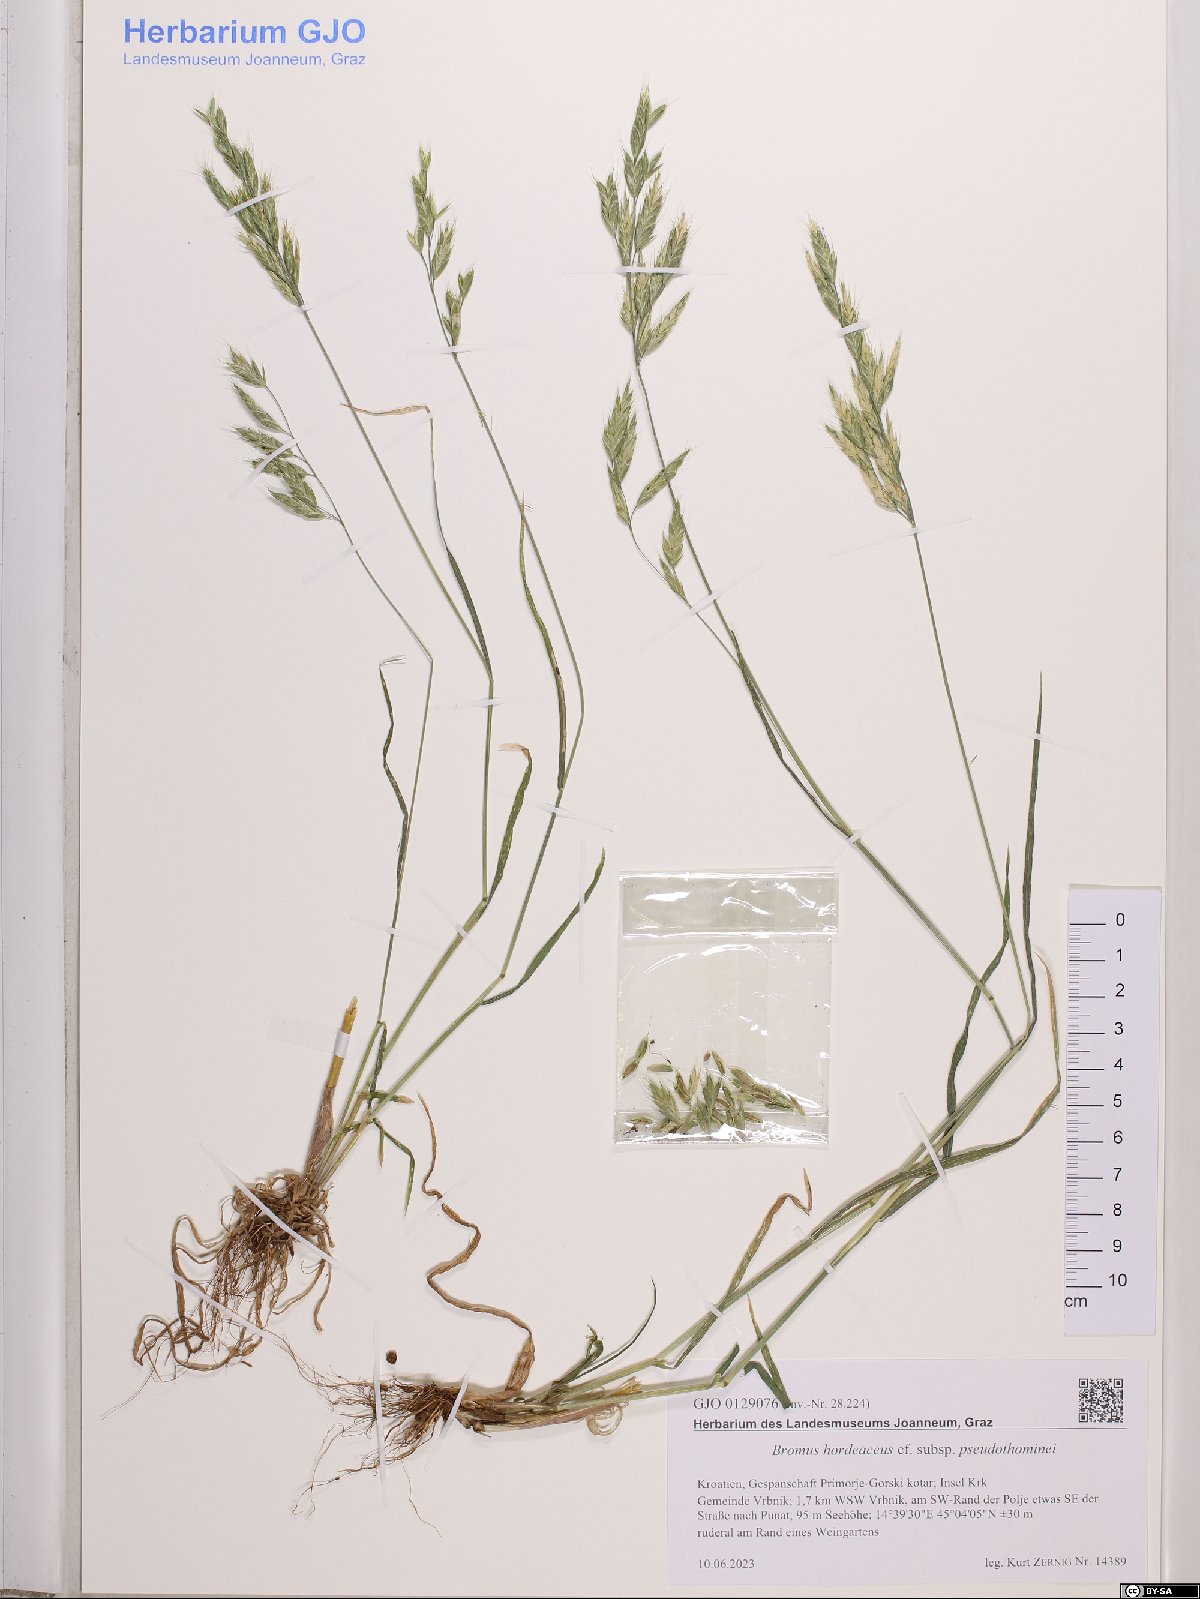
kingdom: Plantae
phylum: Tracheophyta
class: Liliopsida
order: Poales
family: Poaceae
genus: Bromus
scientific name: Bromus ferronii
